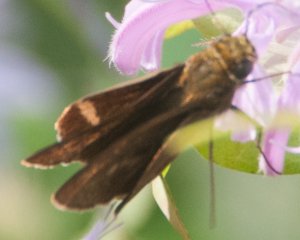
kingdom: Animalia
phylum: Arthropoda
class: Insecta
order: Lepidoptera
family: Hesperiidae
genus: Polites
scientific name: Polites egeremet
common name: Northern Broken-Dash
